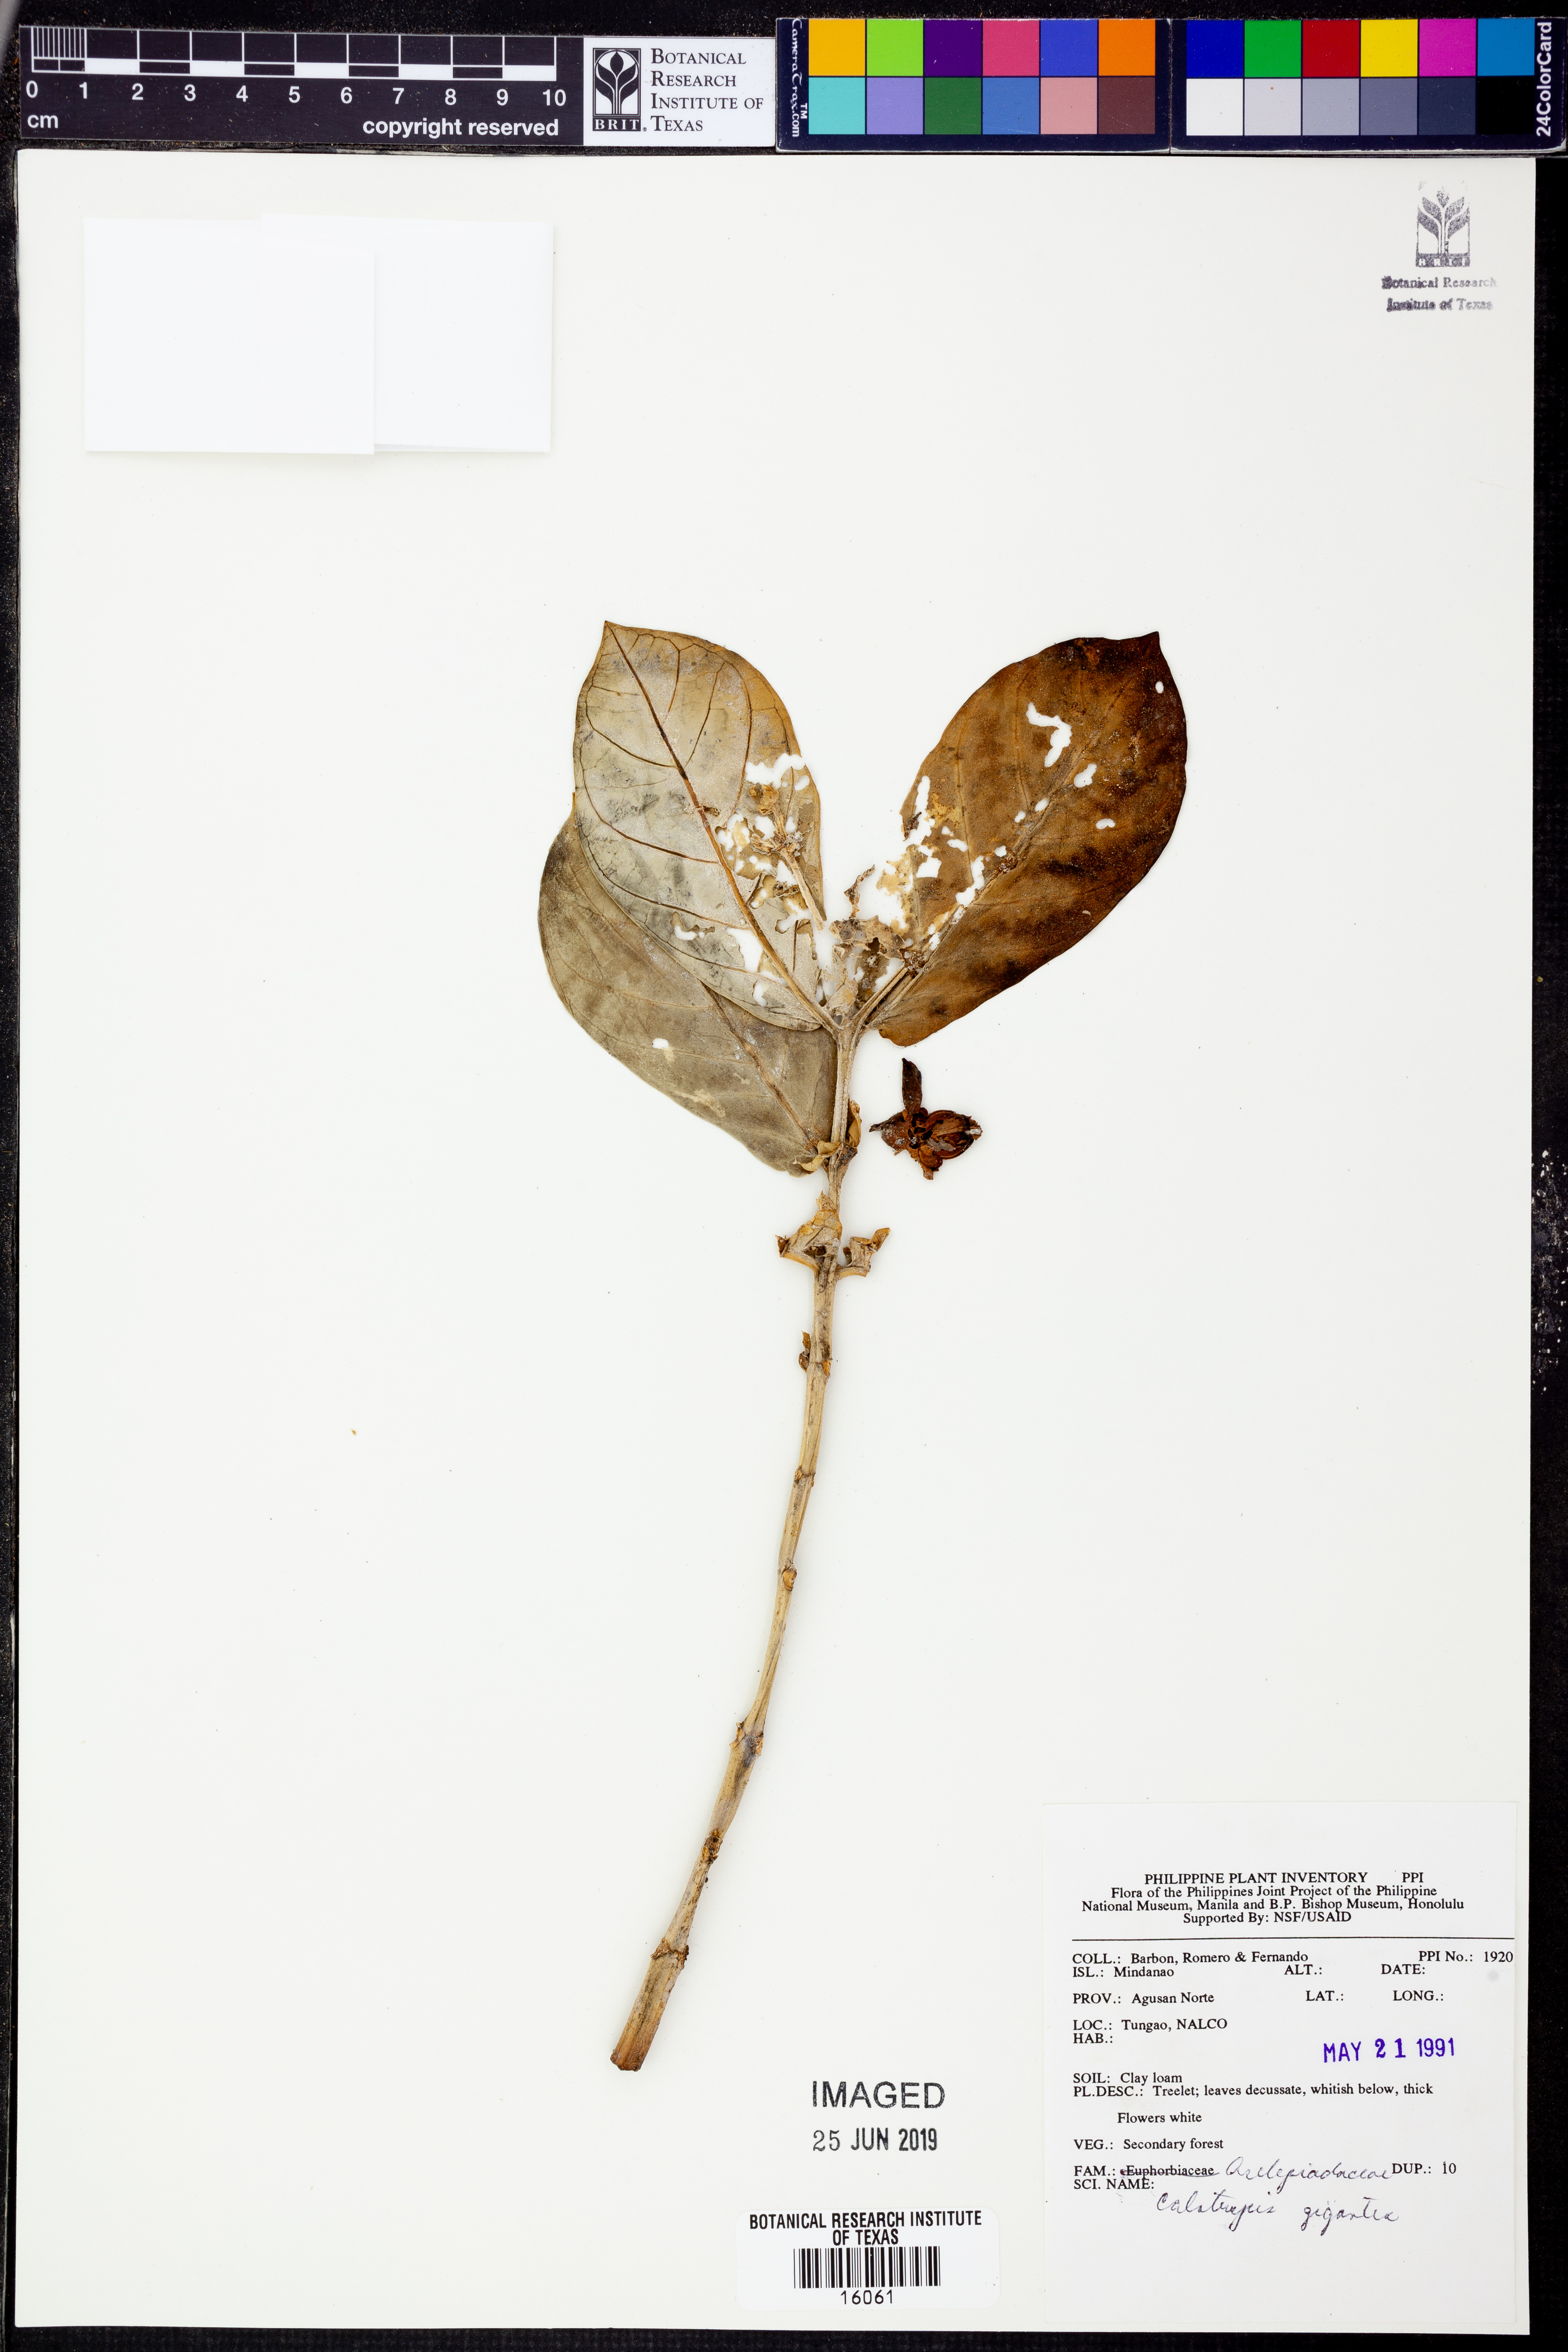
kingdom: Plantae
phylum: Tracheophyta
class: Magnoliopsida
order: Gentianales
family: Apocynaceae
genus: Calotropis
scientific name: Calotropis gigantea
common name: Crown flower
